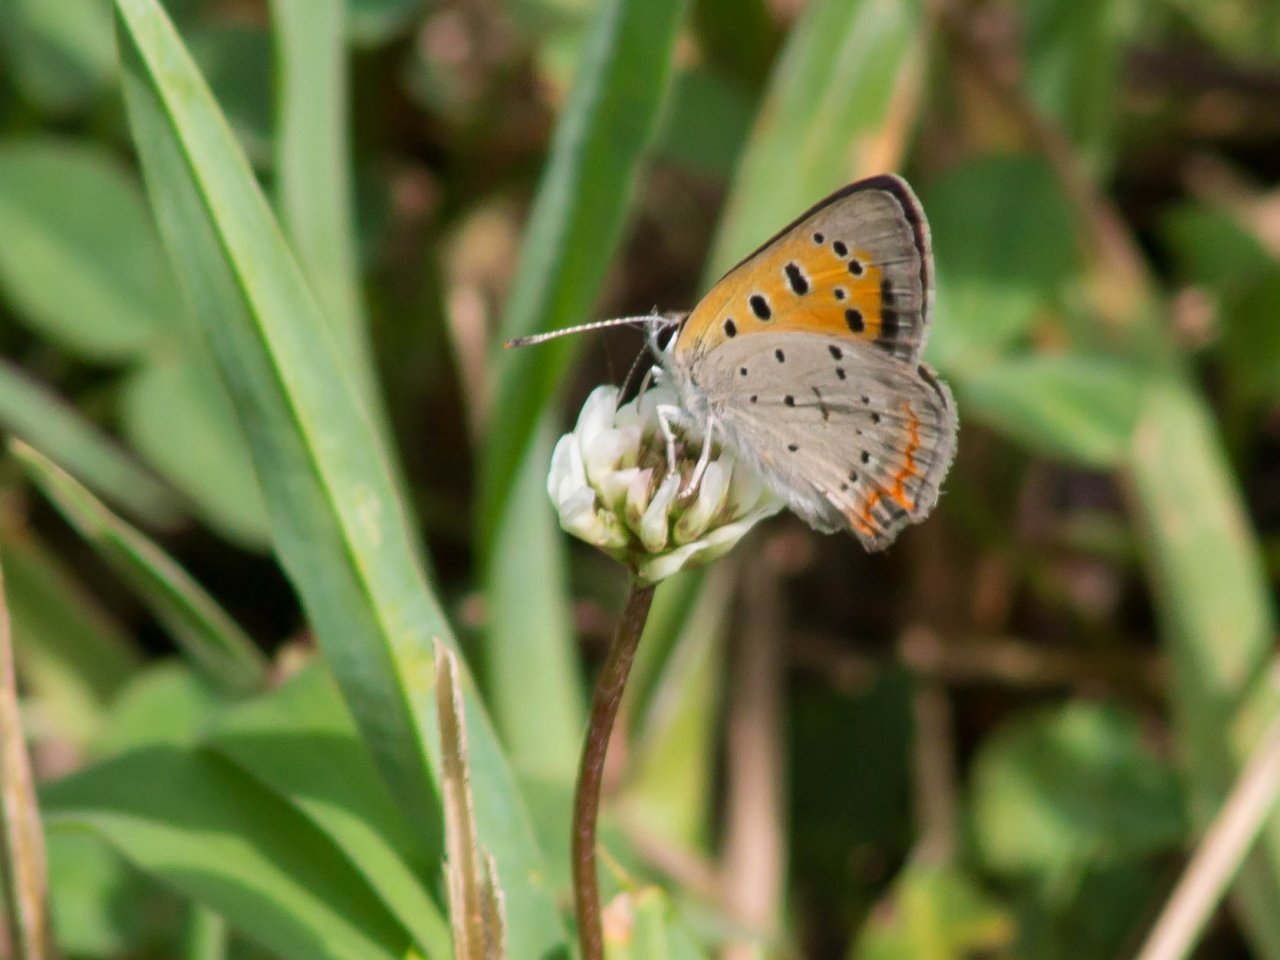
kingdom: Animalia
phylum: Arthropoda
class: Insecta
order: Lepidoptera
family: Lycaenidae
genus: Lycaena
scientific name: Lycaena phlaeas
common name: American Copper
